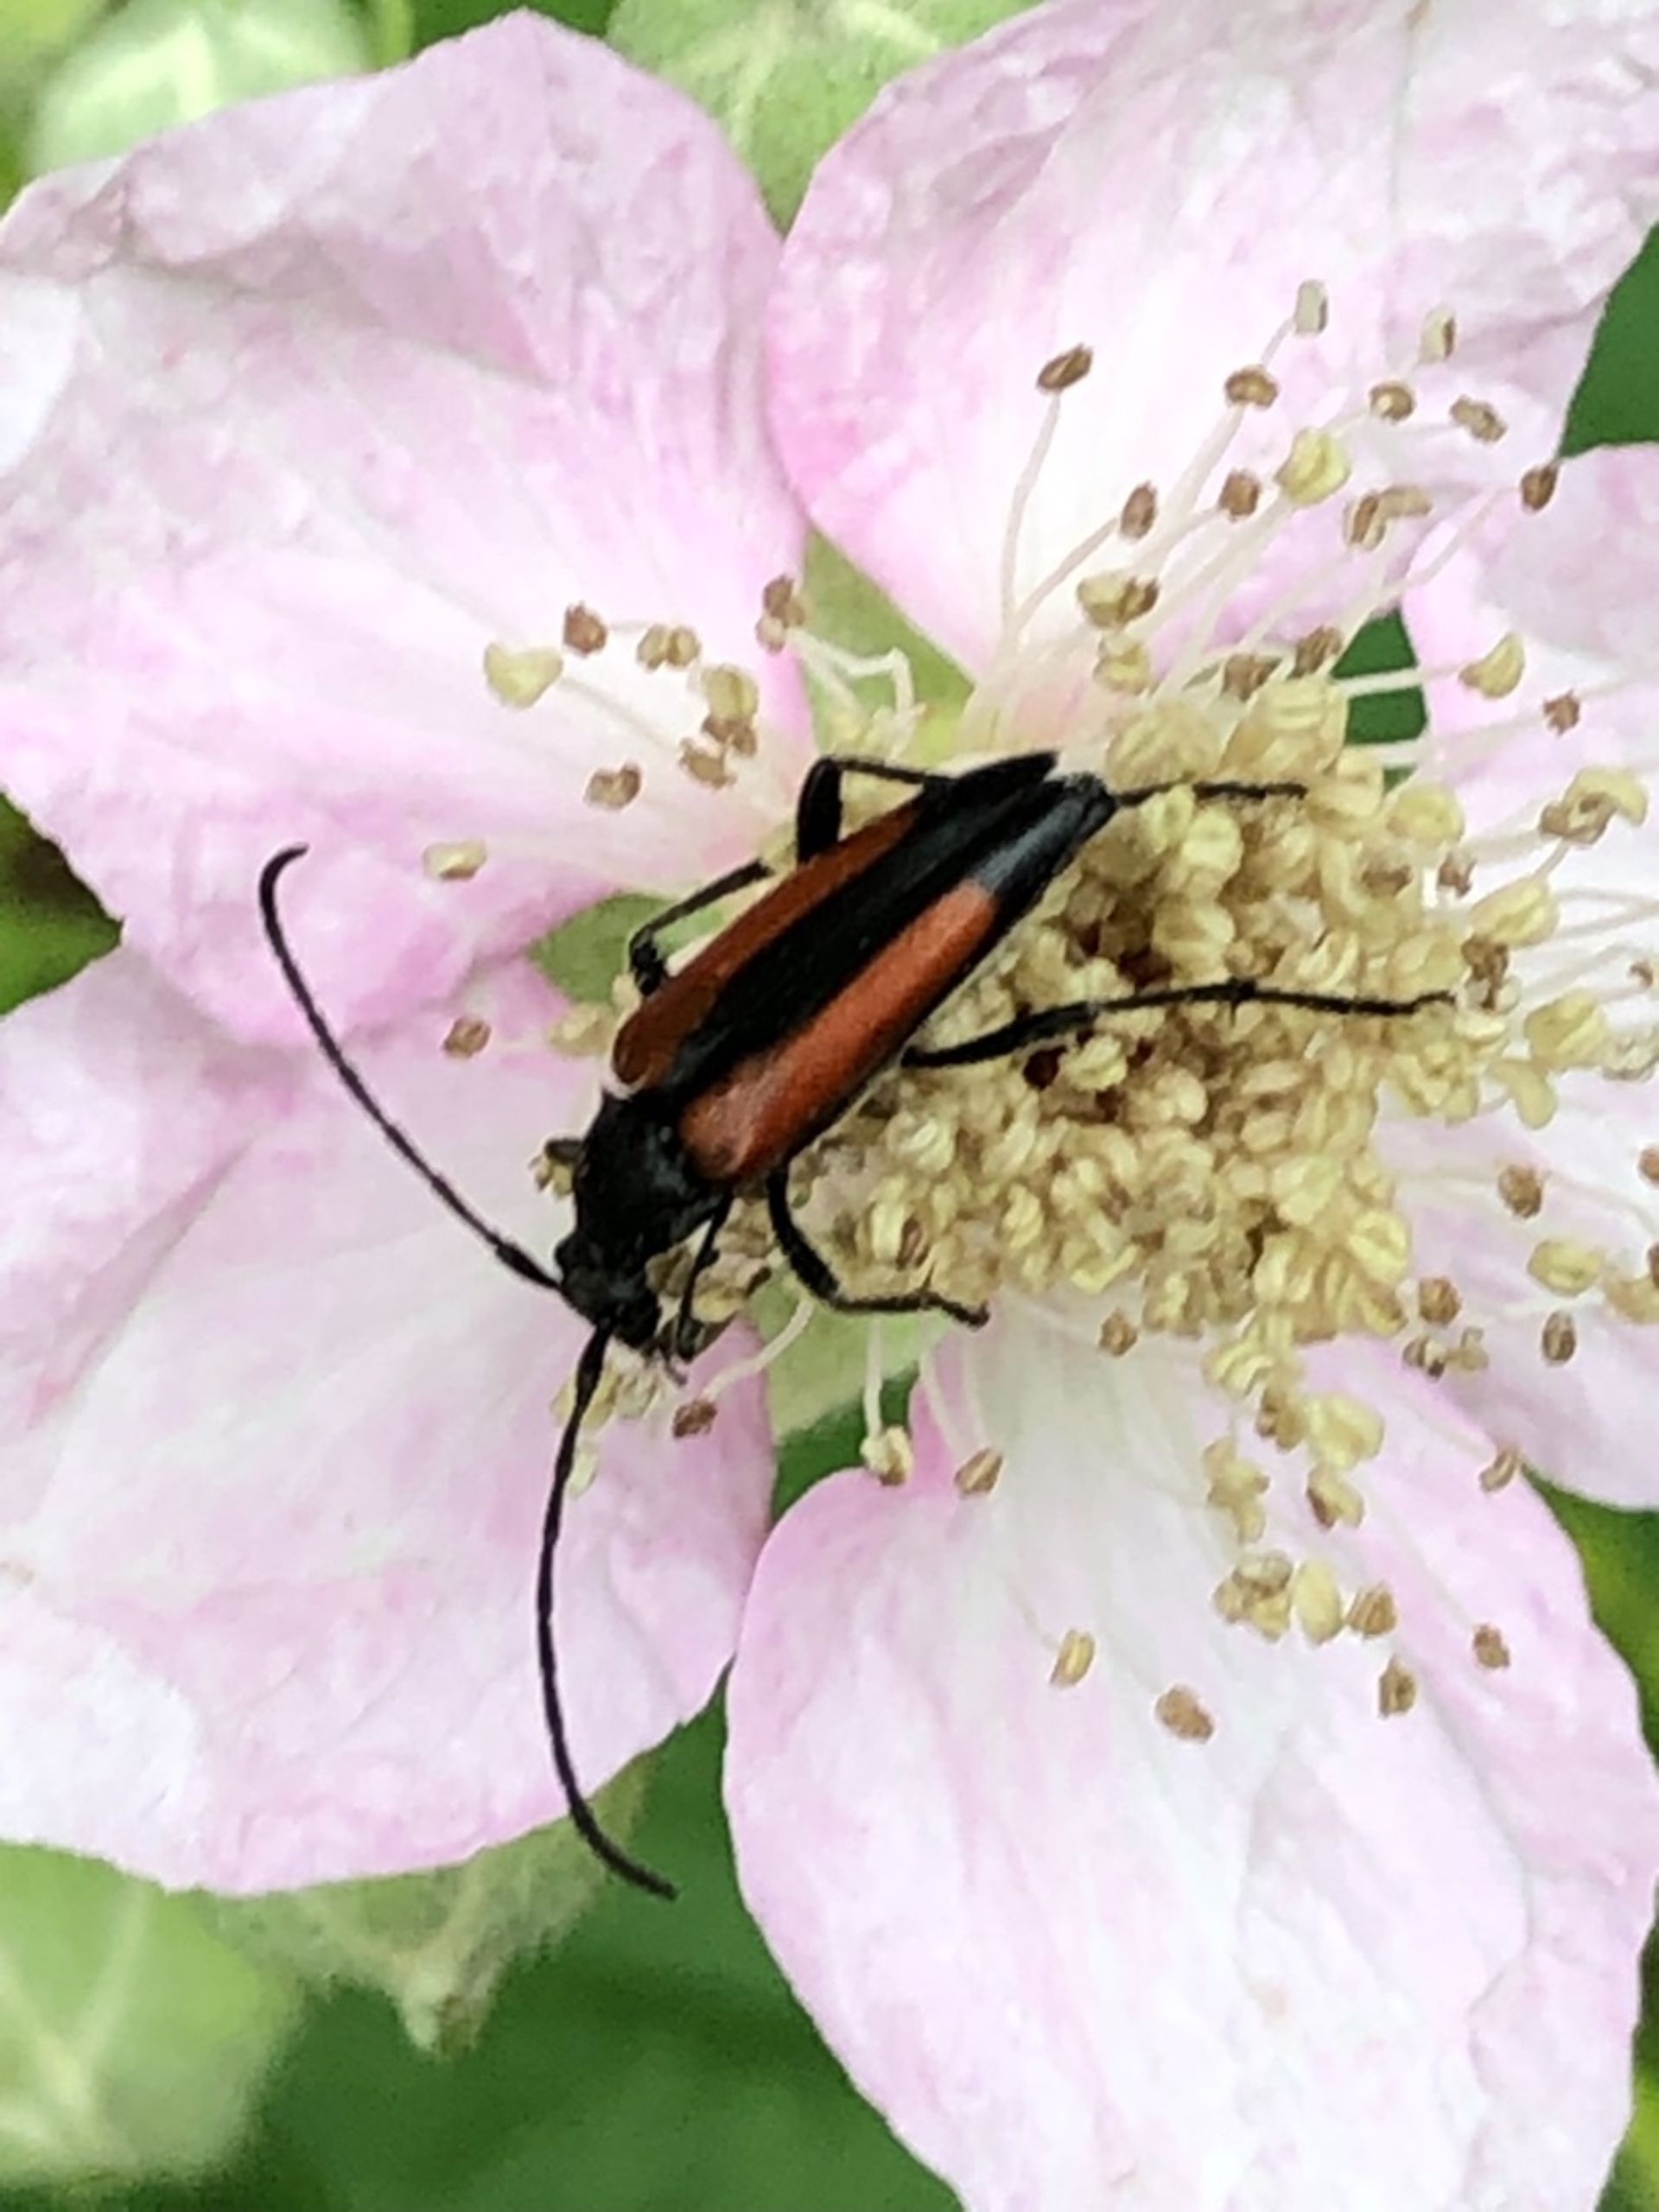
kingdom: Animalia
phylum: Arthropoda
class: Insecta
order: Coleoptera
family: Cerambycidae
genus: Stenurella
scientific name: Stenurella melanura
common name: Sortsømmet blomsterbuk
